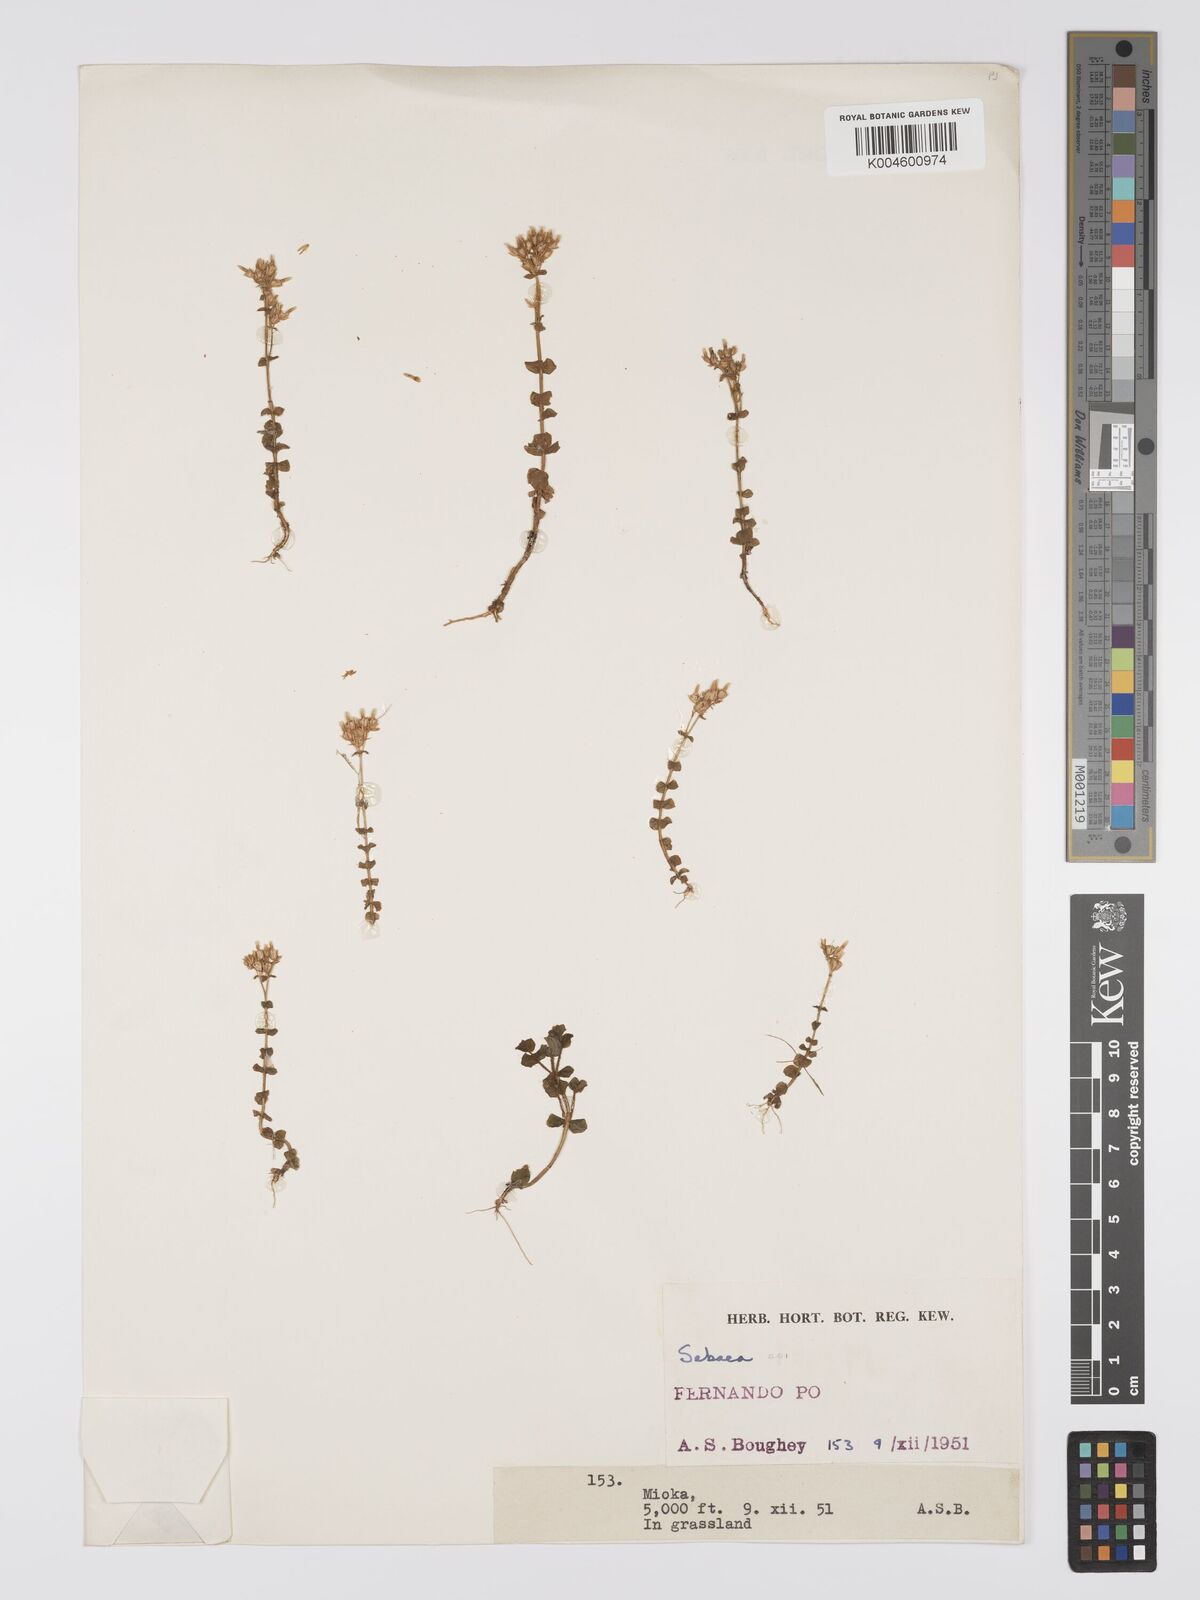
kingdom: Plantae
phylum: Tracheophyta
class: Magnoliopsida
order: Gentianales
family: Gentianaceae
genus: Sebaea
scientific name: Sebaea brachyphylla
